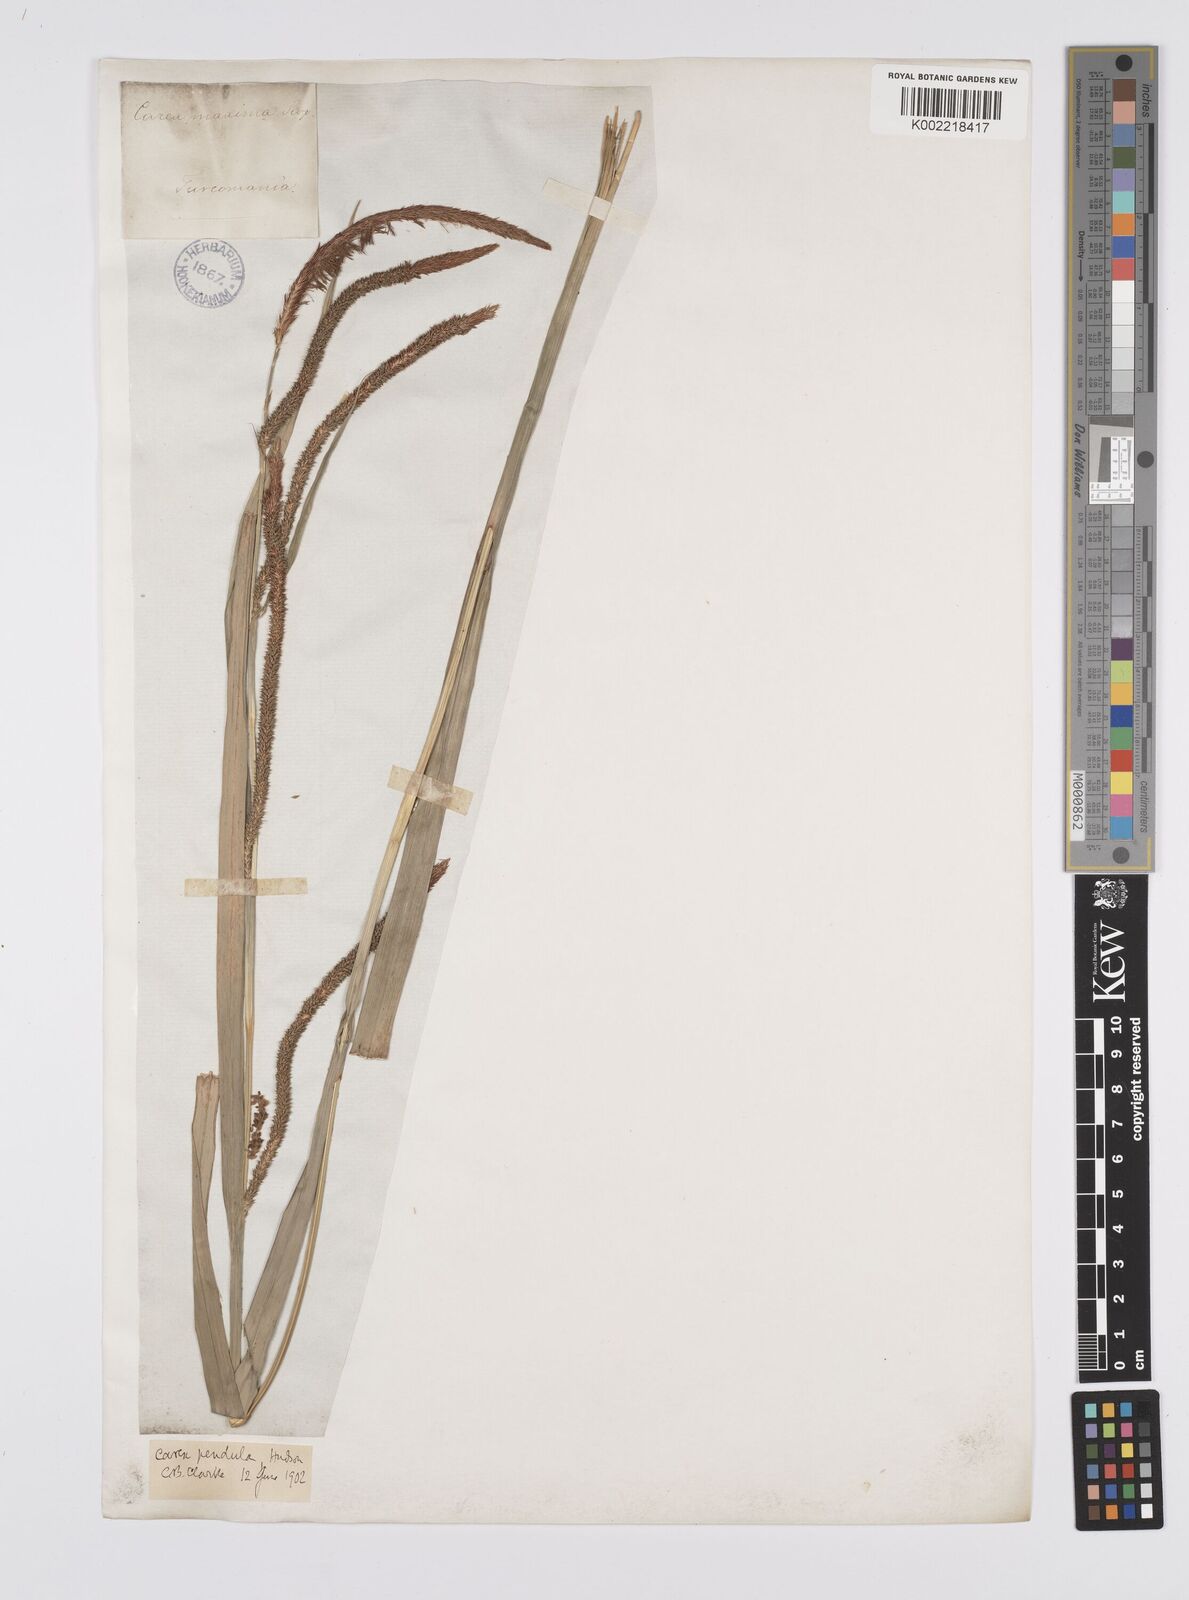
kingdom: Plantae
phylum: Tracheophyta
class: Liliopsida
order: Poales
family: Cyperaceae
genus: Carex
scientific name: Carex pendula
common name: Pendulous sedge
